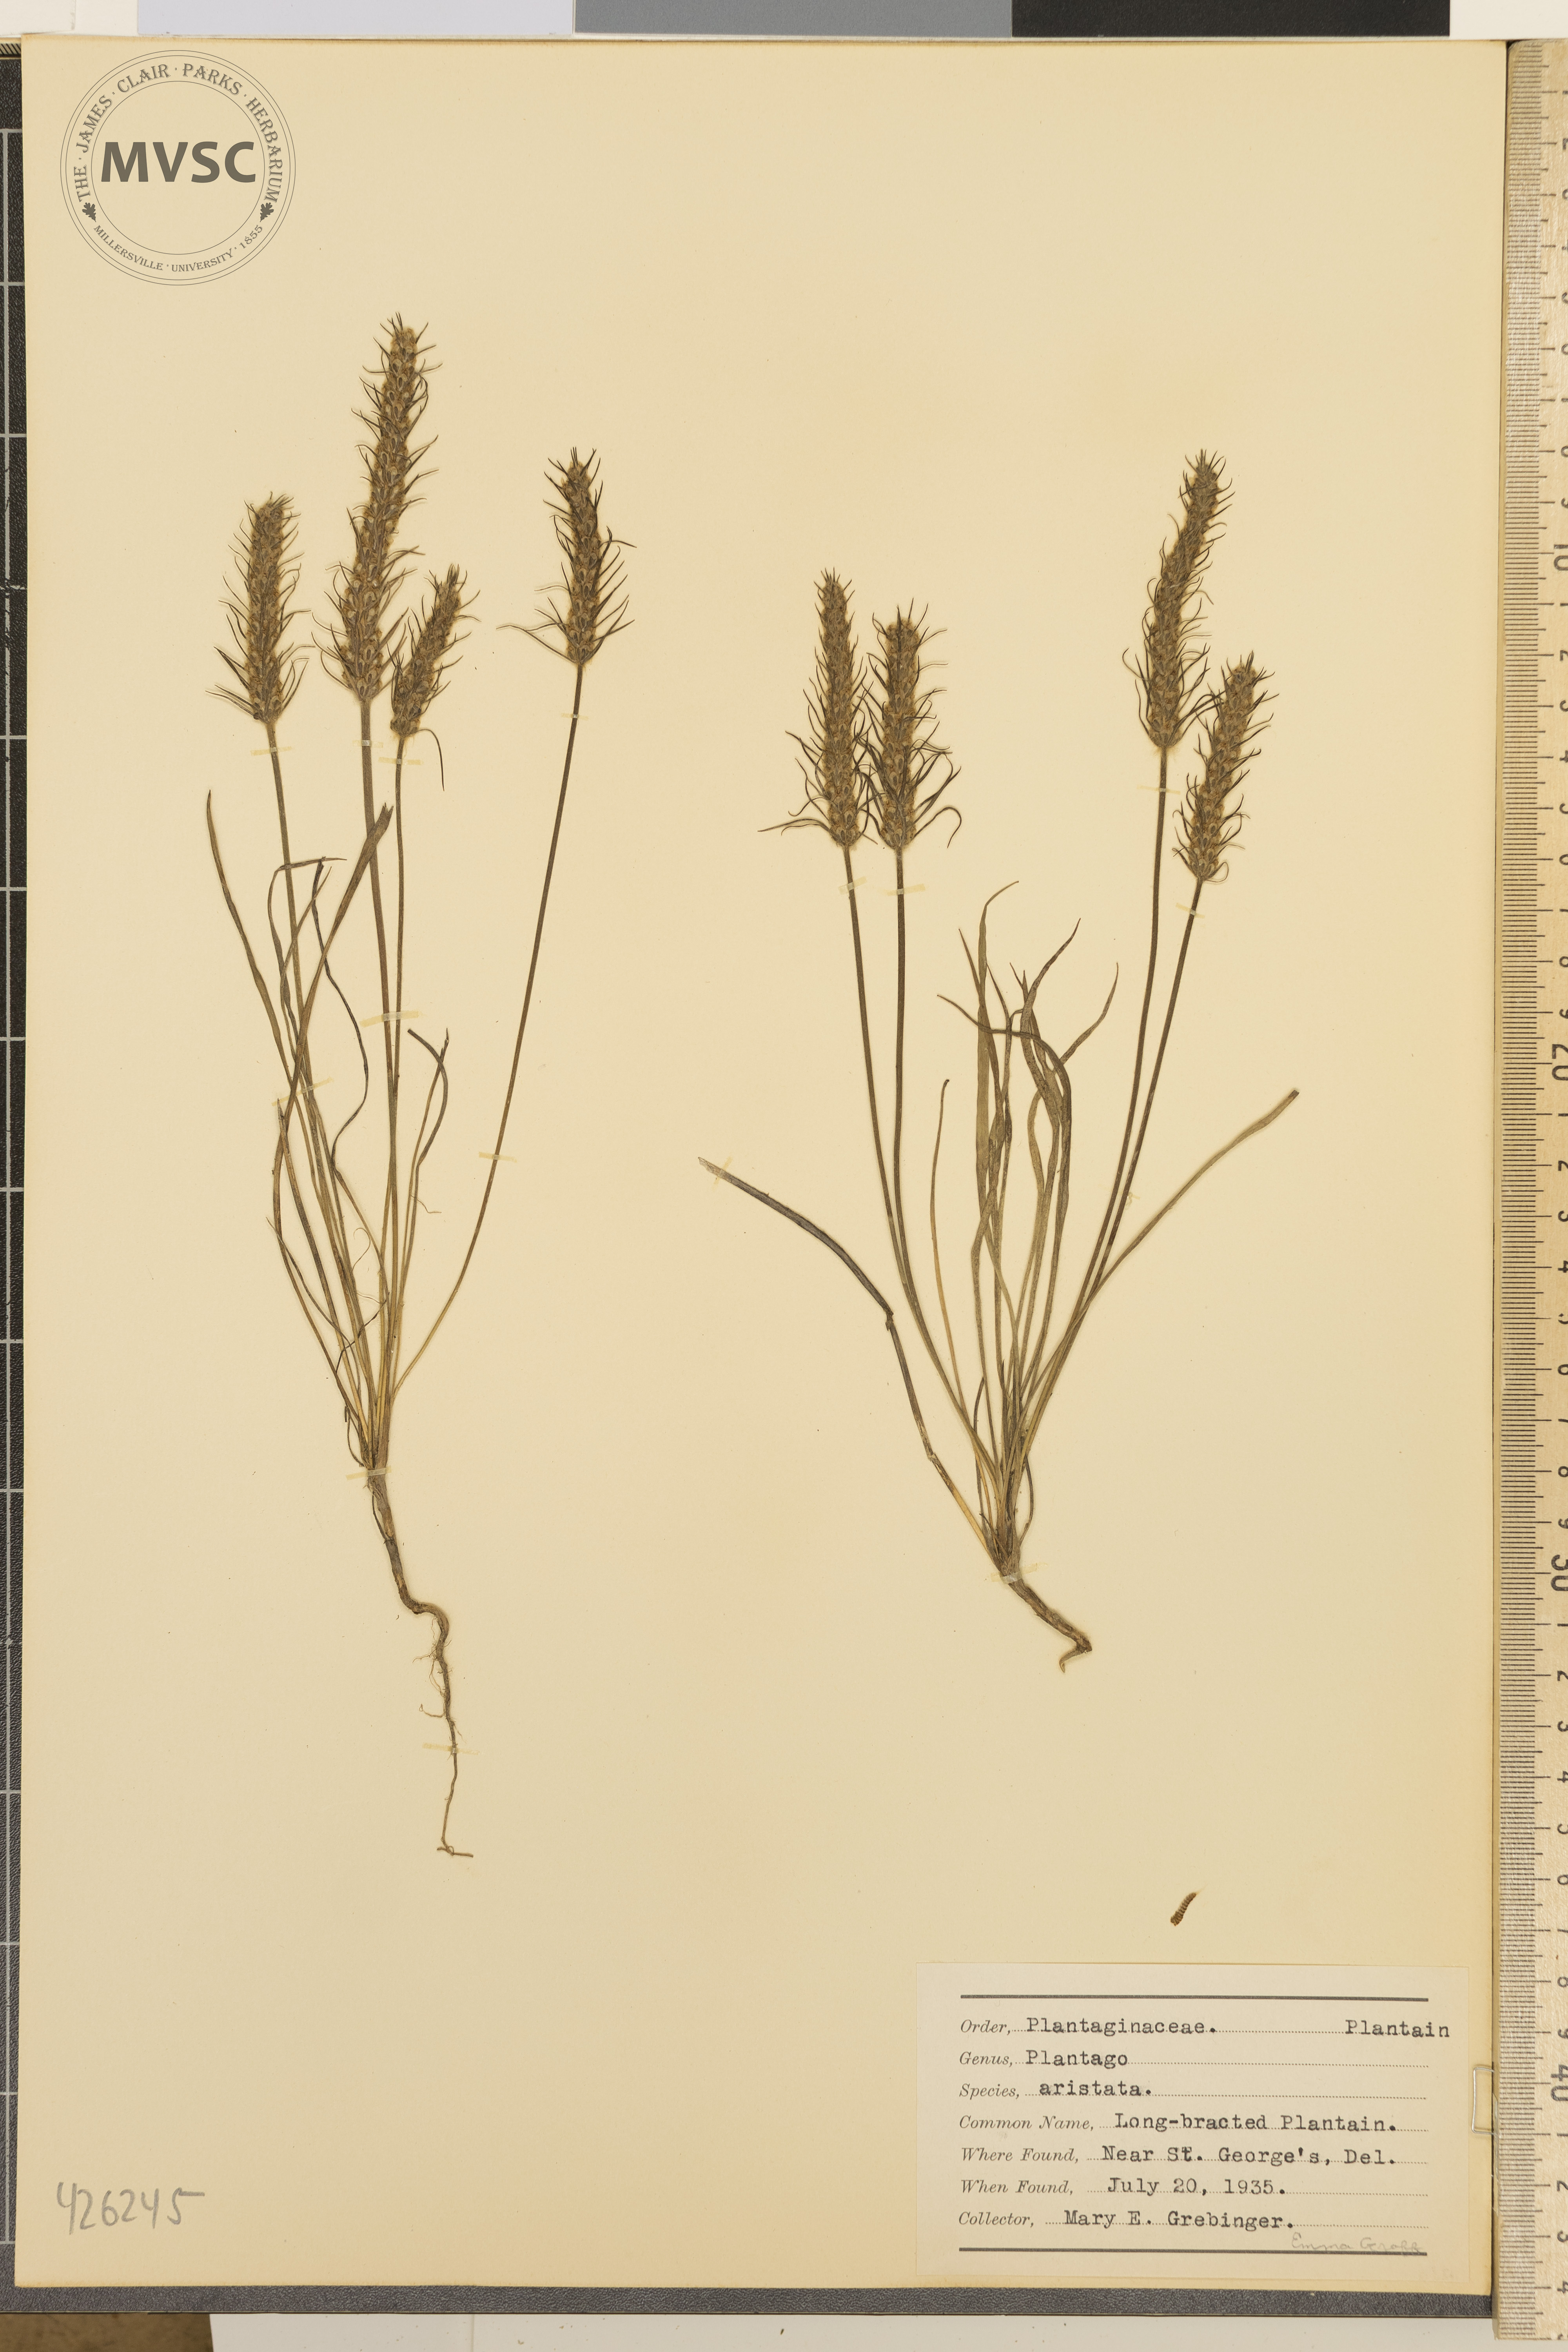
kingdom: Plantae
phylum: Tracheophyta
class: Magnoliopsida
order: Lamiales
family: Plantaginaceae
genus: Plantago
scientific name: Plantago aristata
